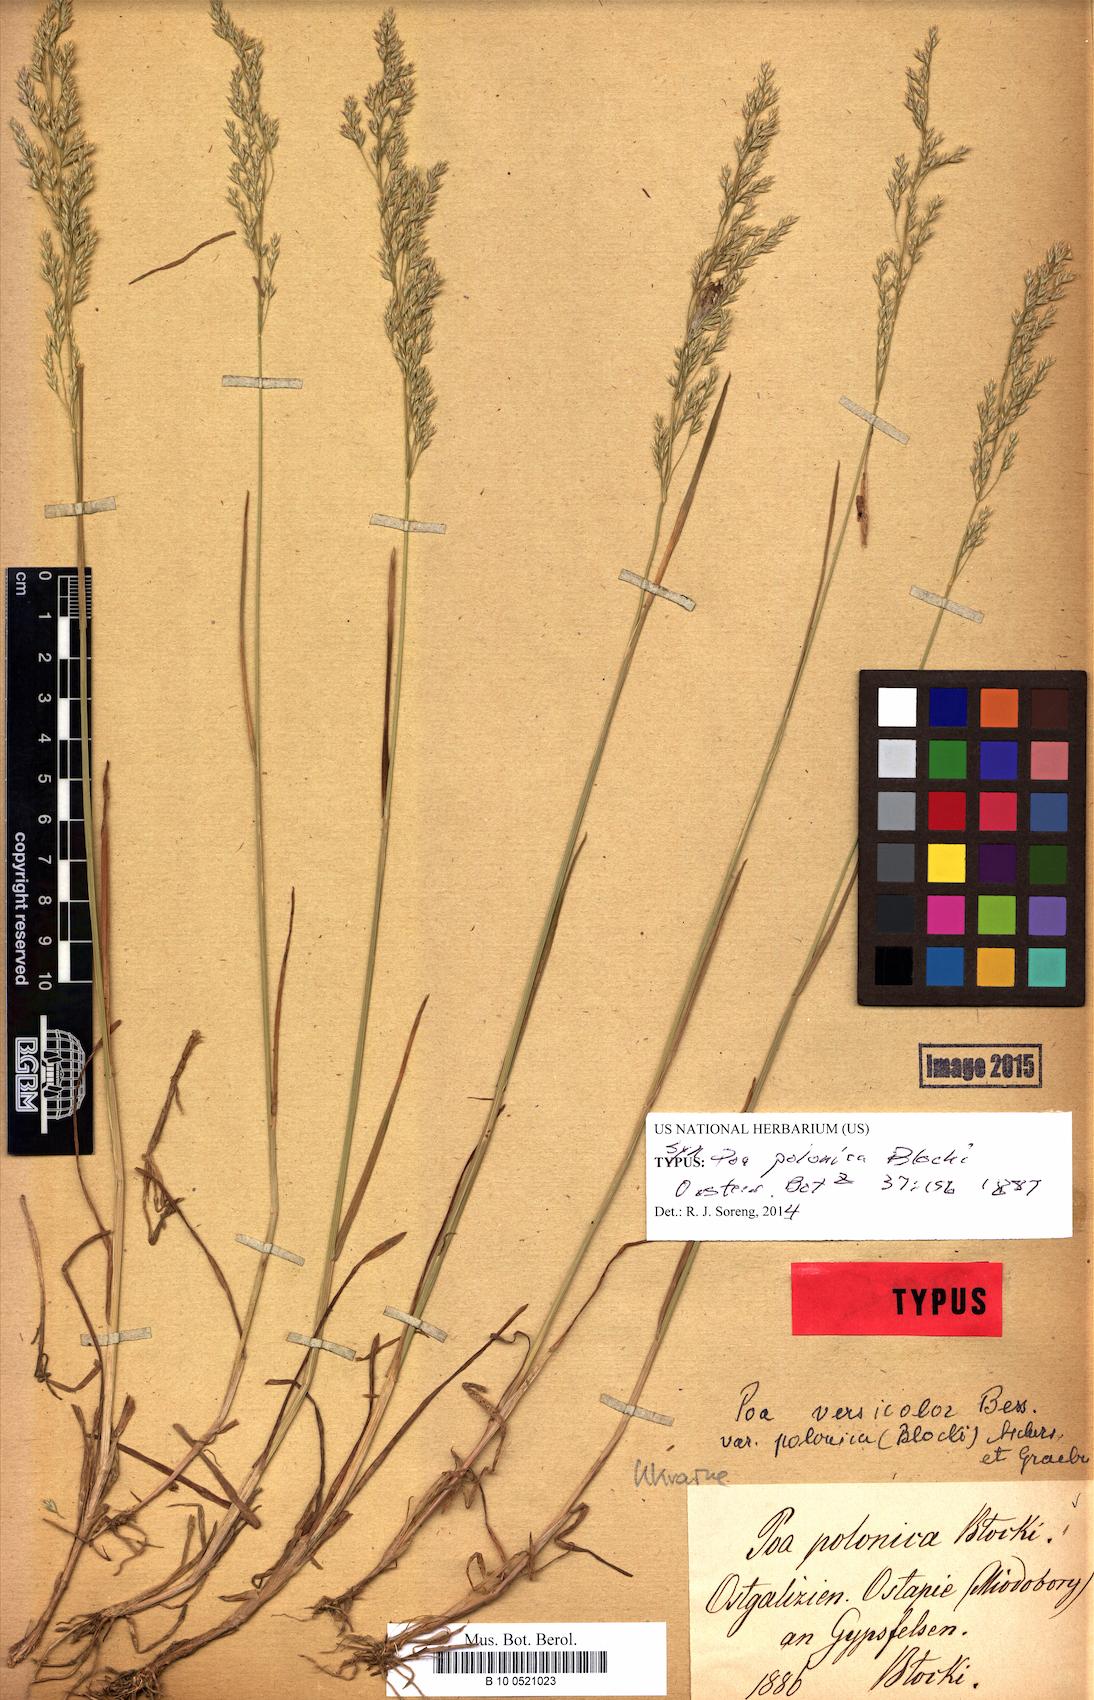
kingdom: Plantae
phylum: Tracheophyta
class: Liliopsida
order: Poales
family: Poaceae
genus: Poa
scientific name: Poa versicolor
